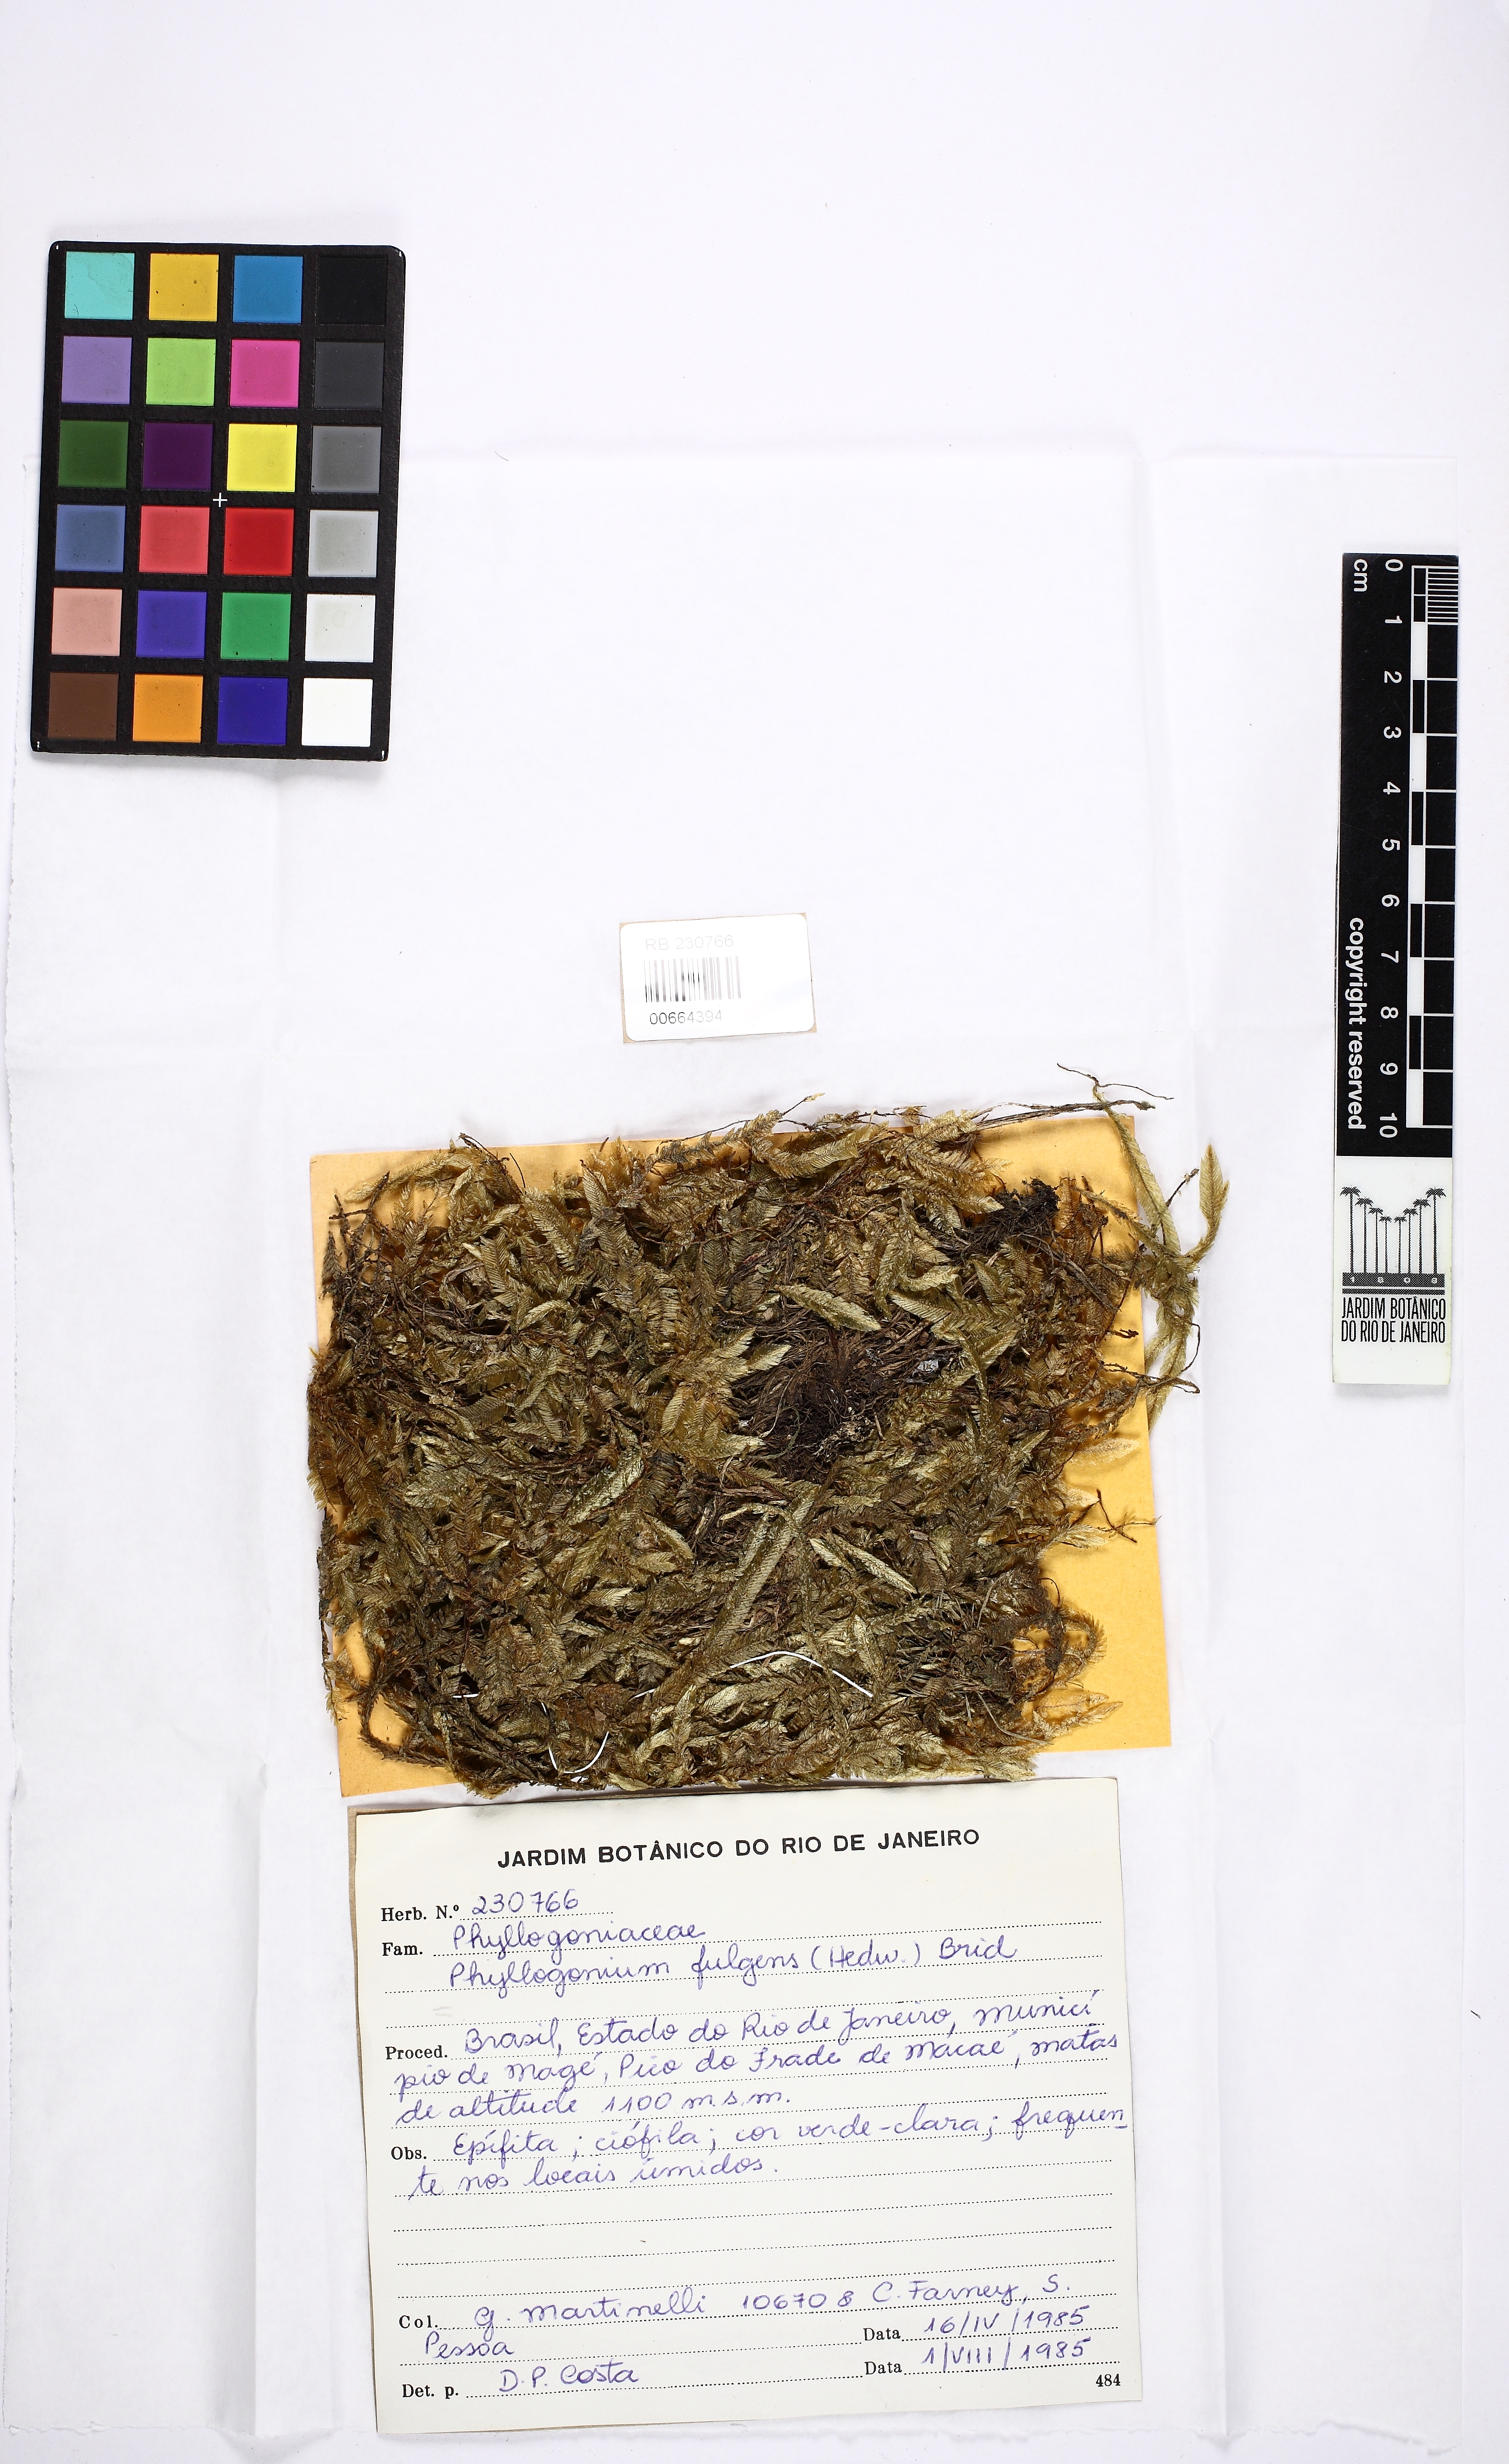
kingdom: Plantae
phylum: Bryophyta
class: Bryopsida
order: Hypnales
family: Phyllogoniaceae
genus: Phyllogonium
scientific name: Phyllogonium fulgens
